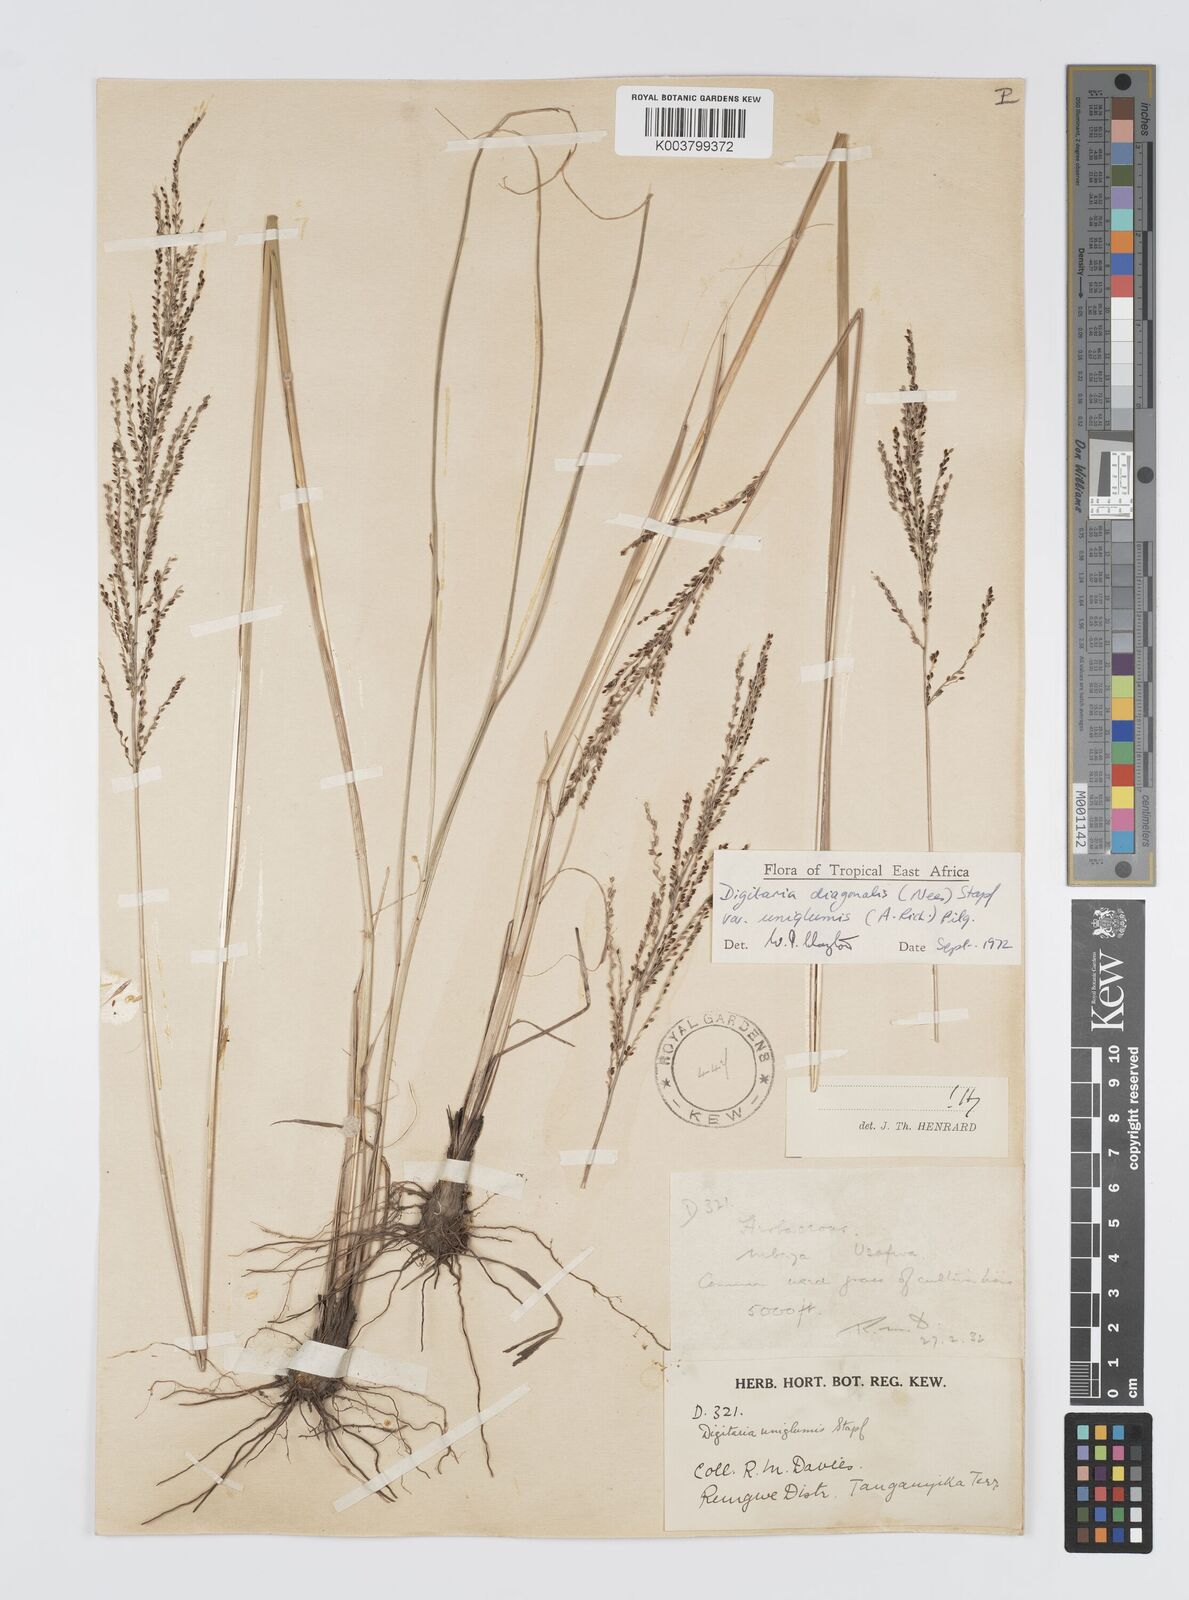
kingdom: Plantae
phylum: Tracheophyta
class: Liliopsida
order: Poales
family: Poaceae
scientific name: Poaceae
